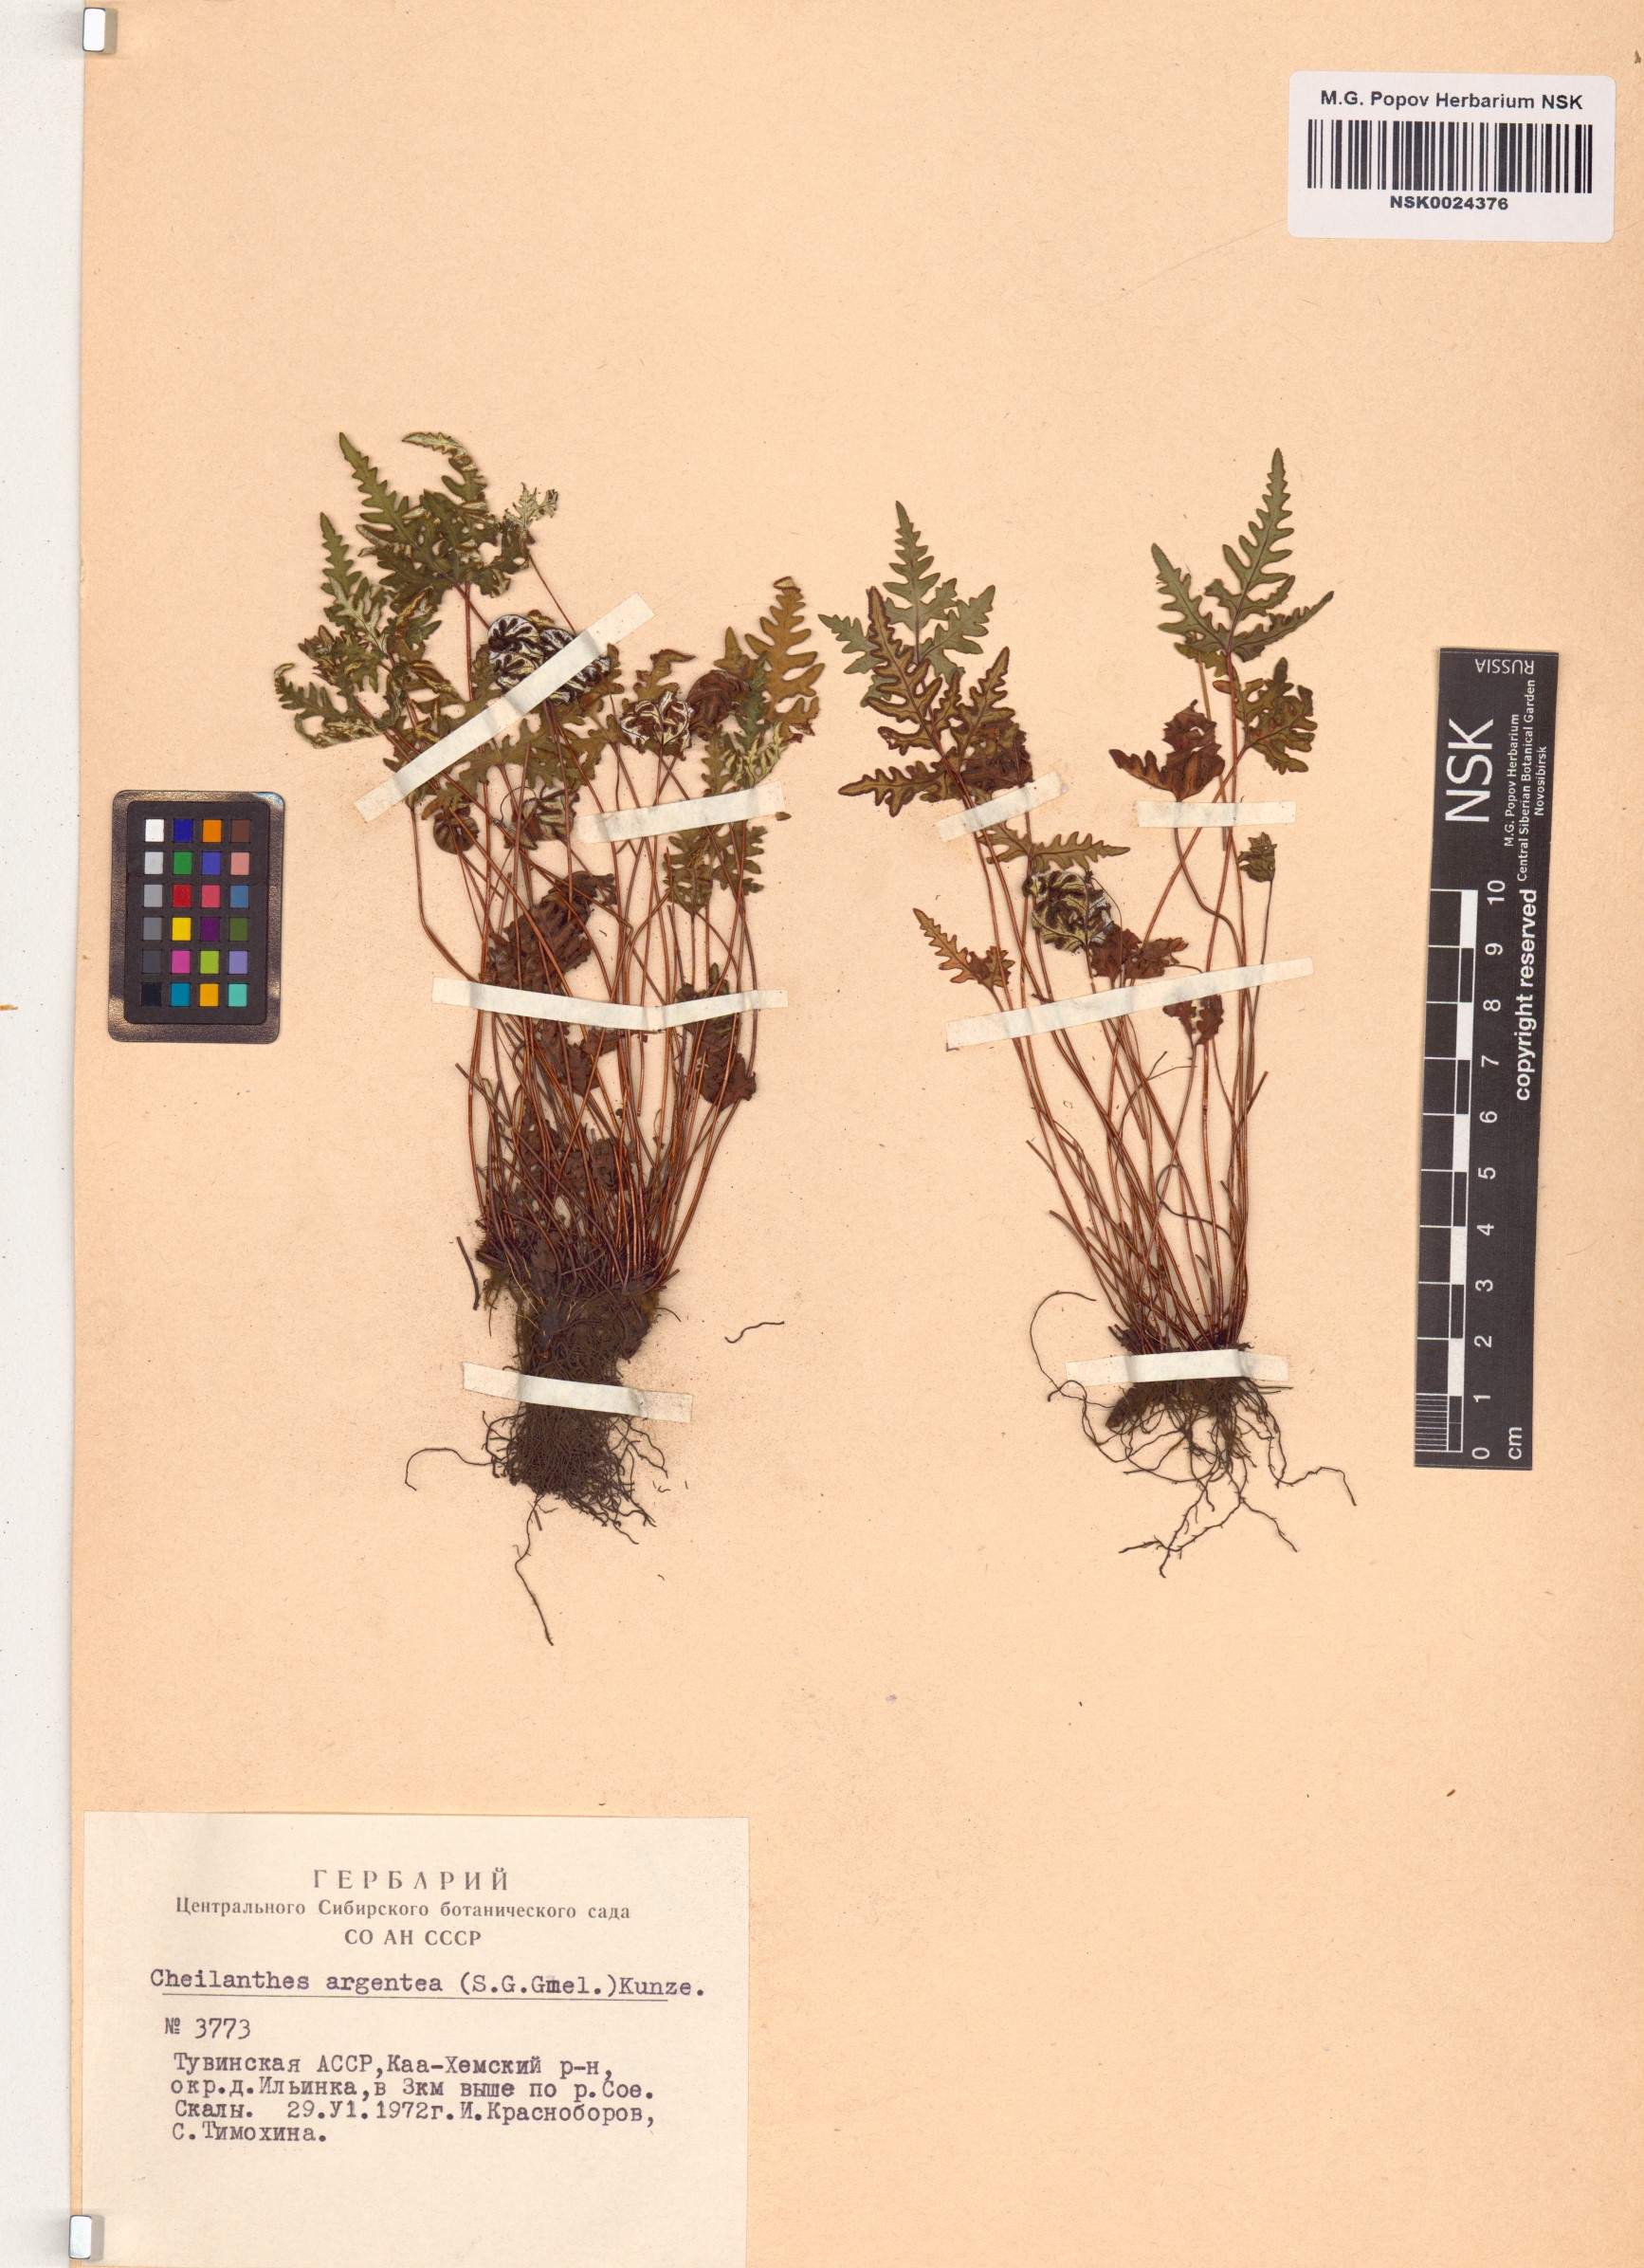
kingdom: Plantae
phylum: Tracheophyta
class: Polypodiopsida
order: Polypodiales
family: Pteridaceae
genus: Aleuritopteris
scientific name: Aleuritopteris argentea
